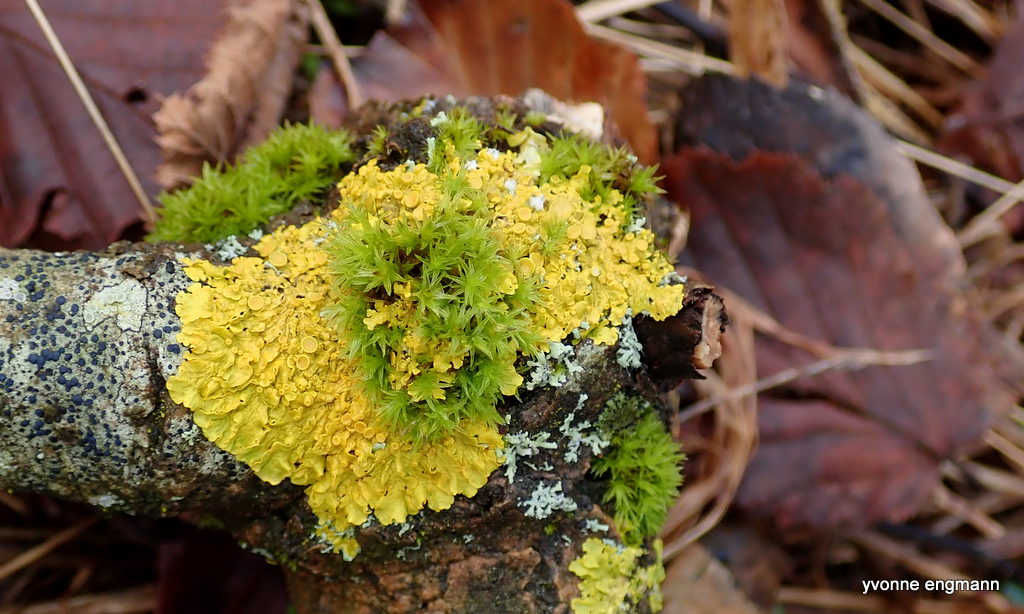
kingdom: Fungi
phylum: Ascomycota
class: Lecanoromycetes
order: Teloschistales
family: Teloschistaceae
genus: Xanthoria
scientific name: Xanthoria parietina
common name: almindelig væggelav
